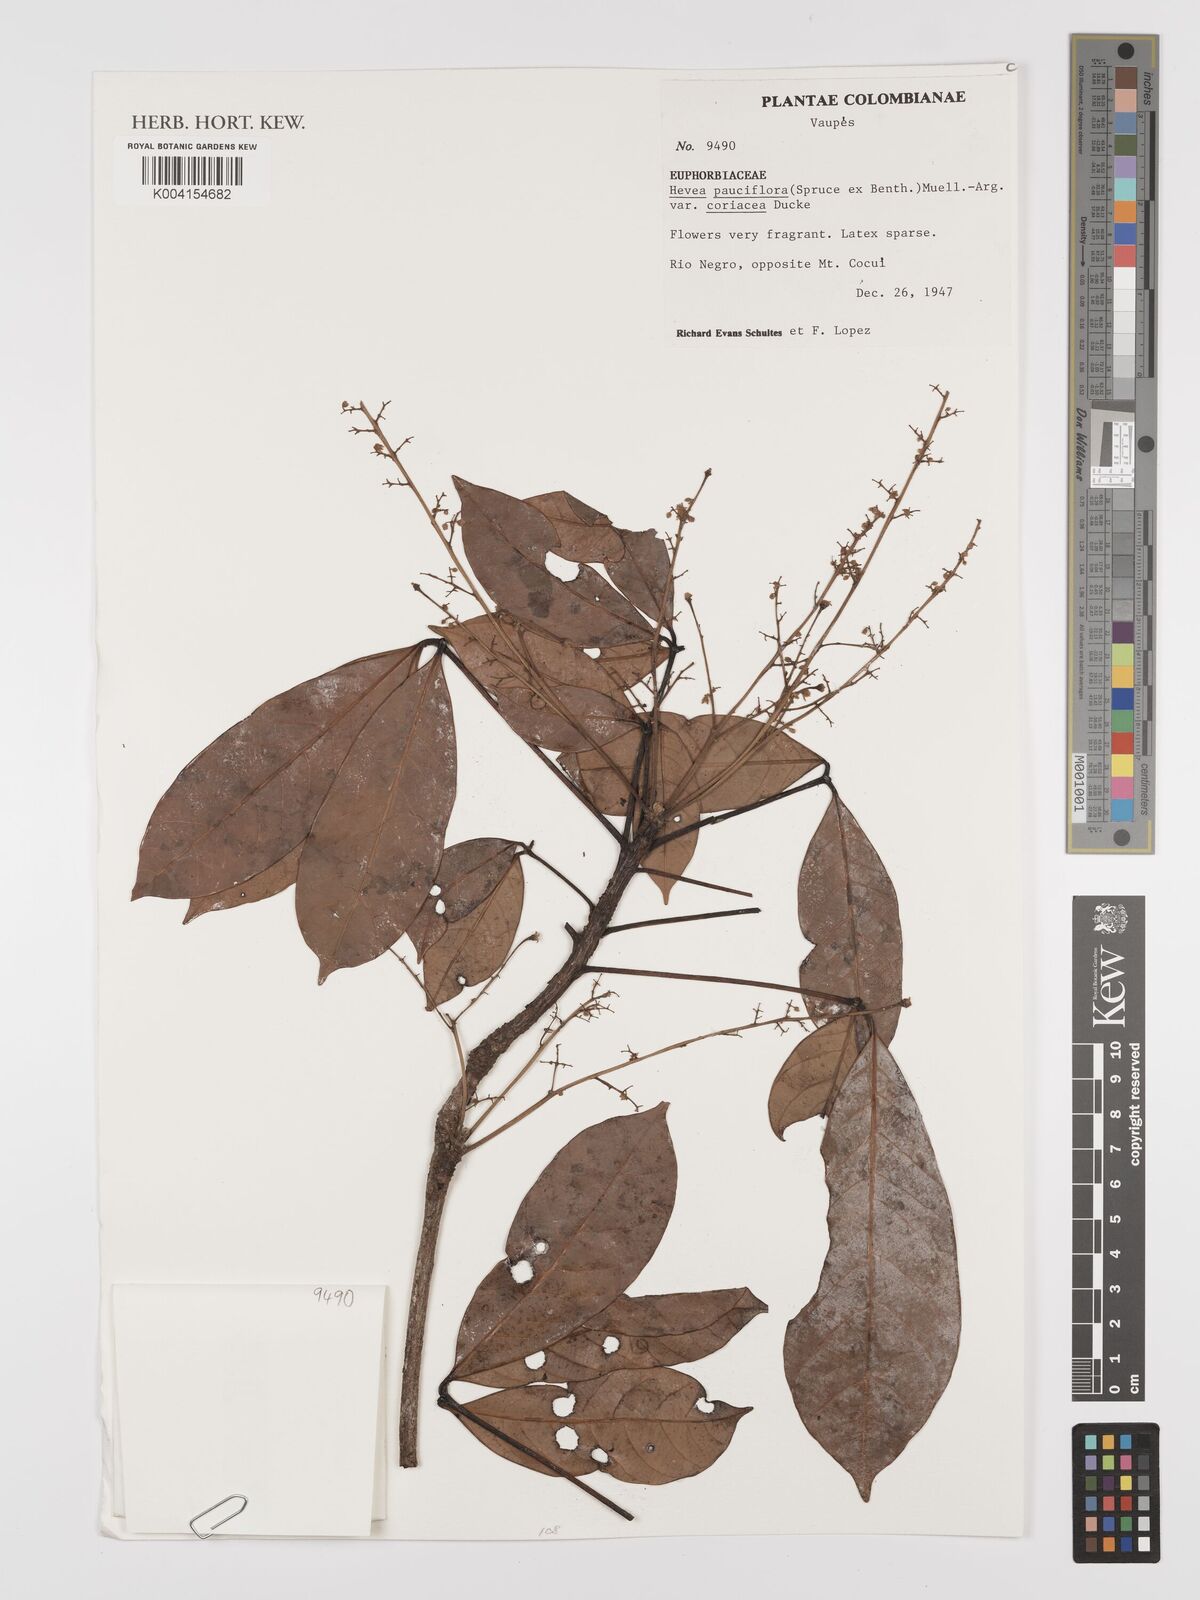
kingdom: Plantae
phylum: Tracheophyta
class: Magnoliopsida
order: Malpighiales
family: Euphorbiaceae
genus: Hevea
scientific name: Hevea pauciflora
